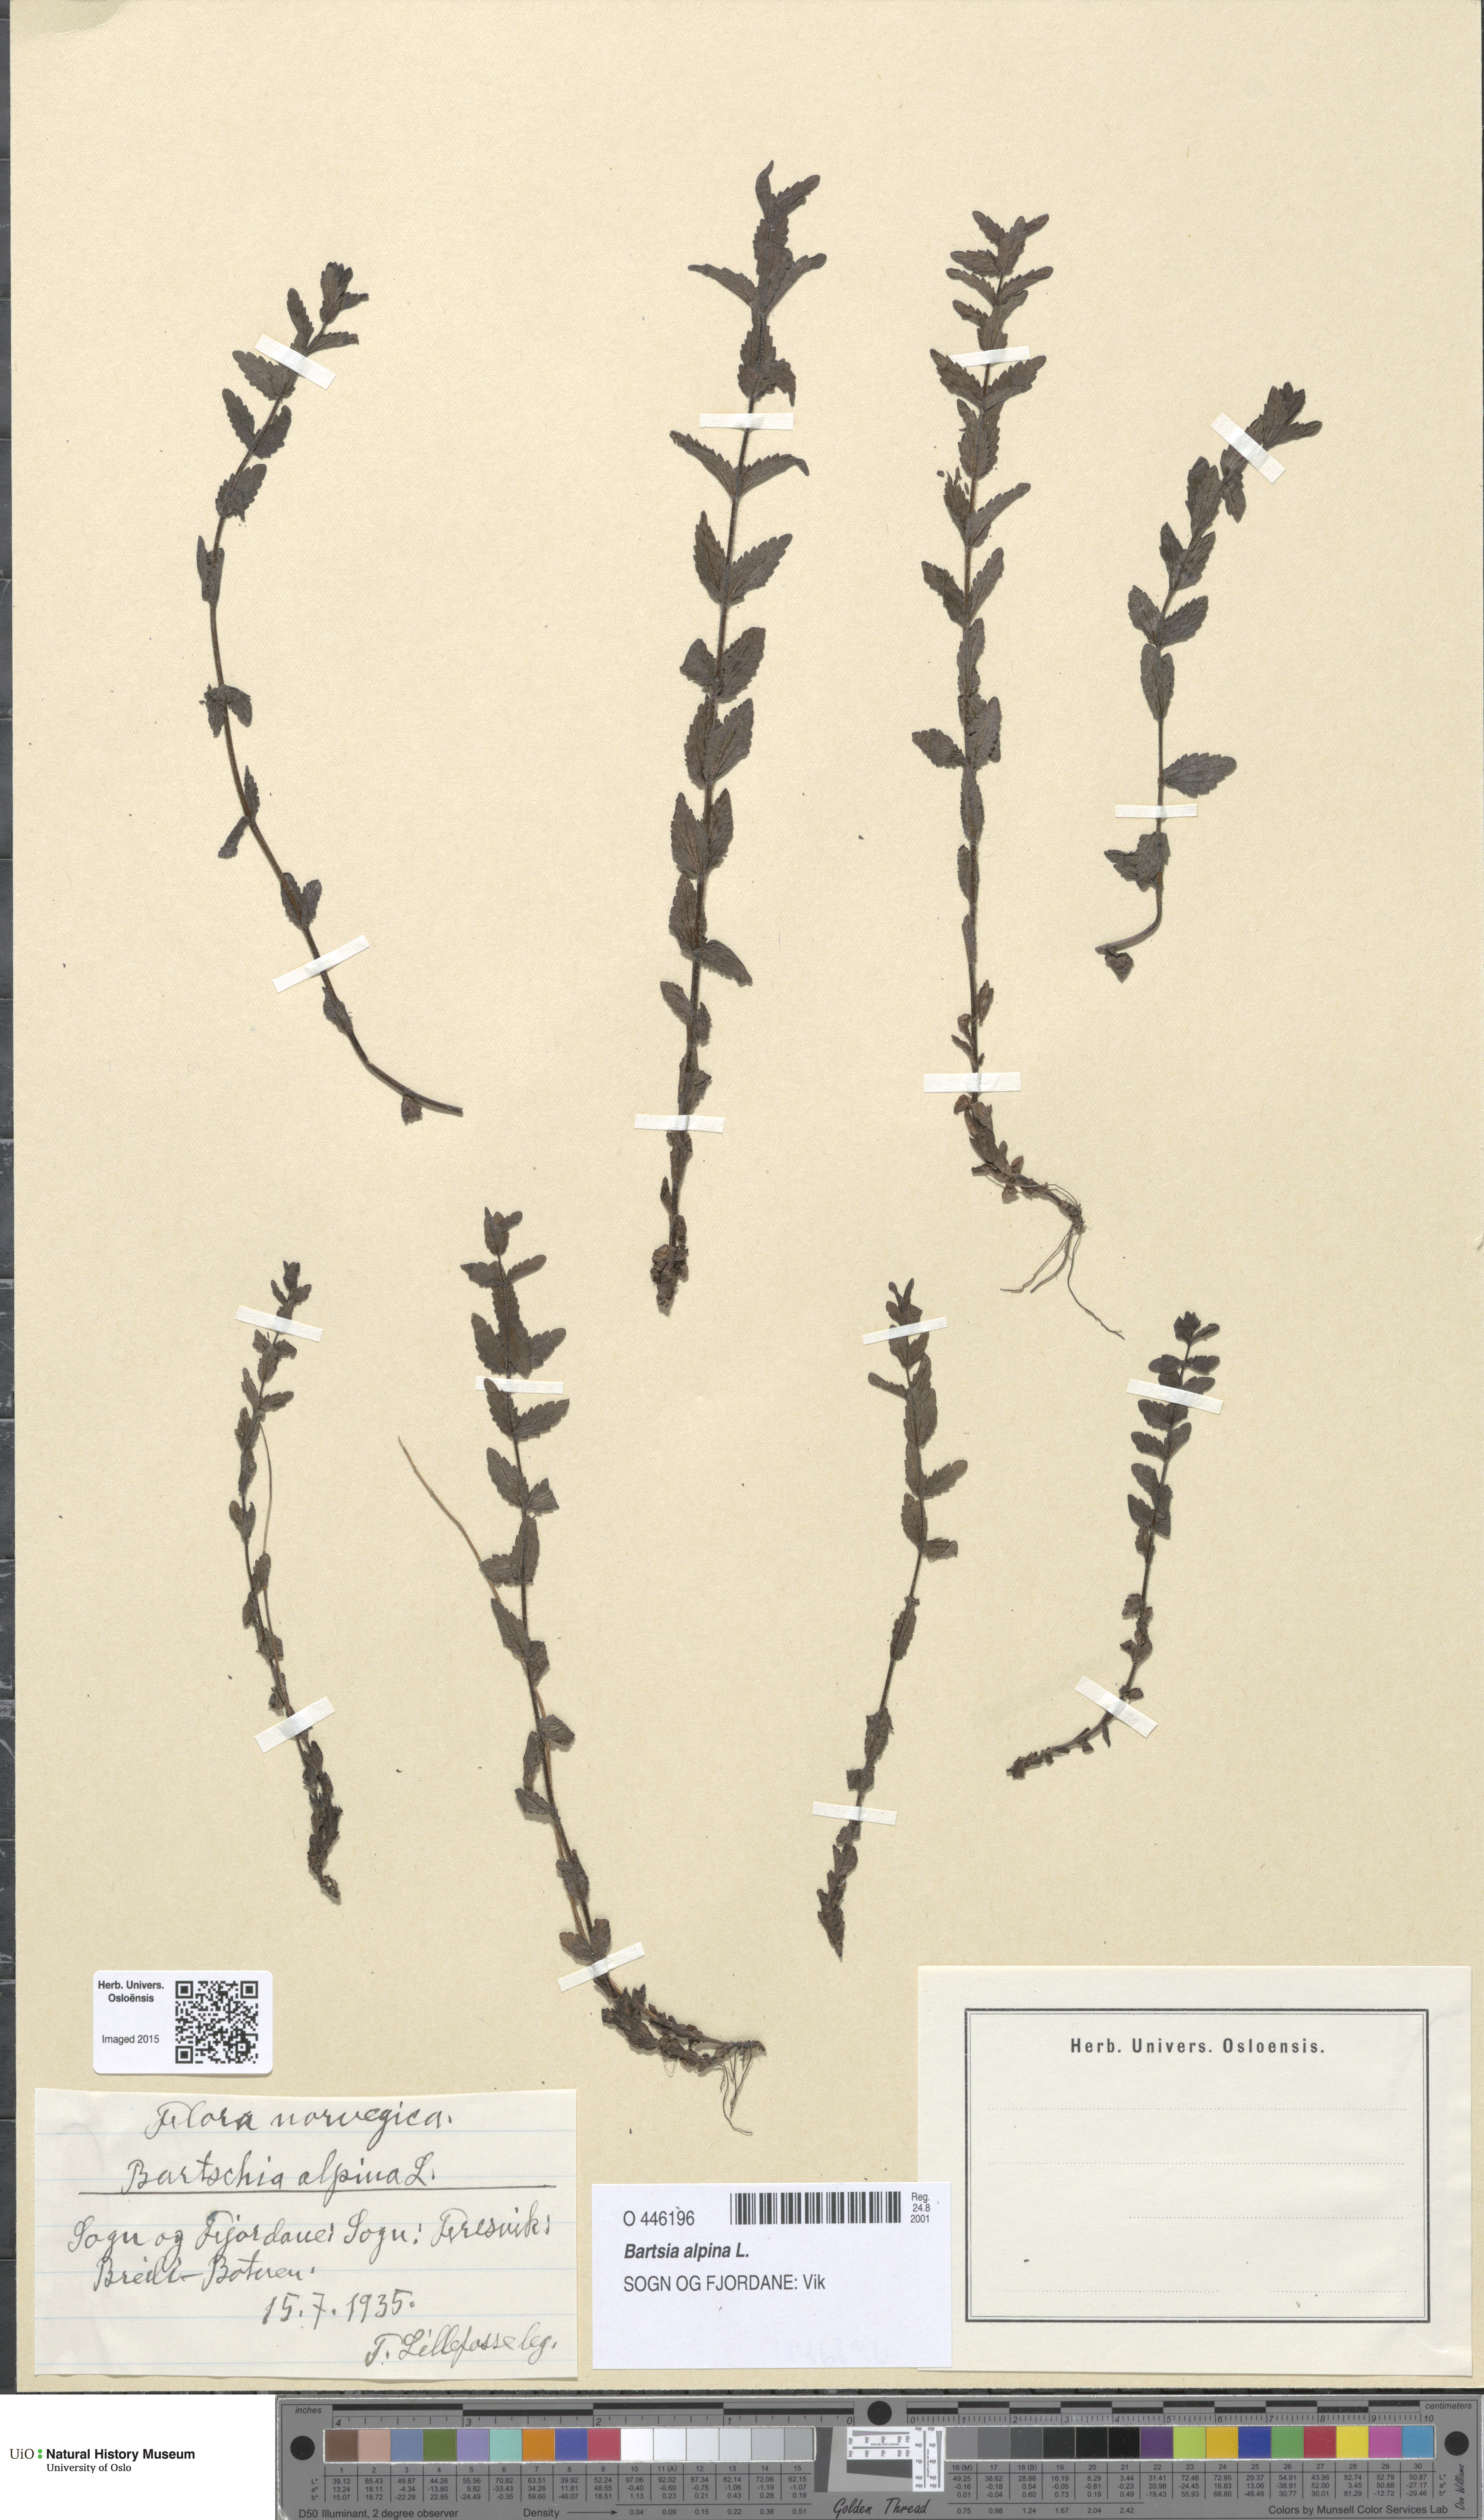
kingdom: Plantae
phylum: Tracheophyta
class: Magnoliopsida
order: Lamiales
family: Orobanchaceae
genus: Bartsia
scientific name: Bartsia alpina
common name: Alpine bartsia
